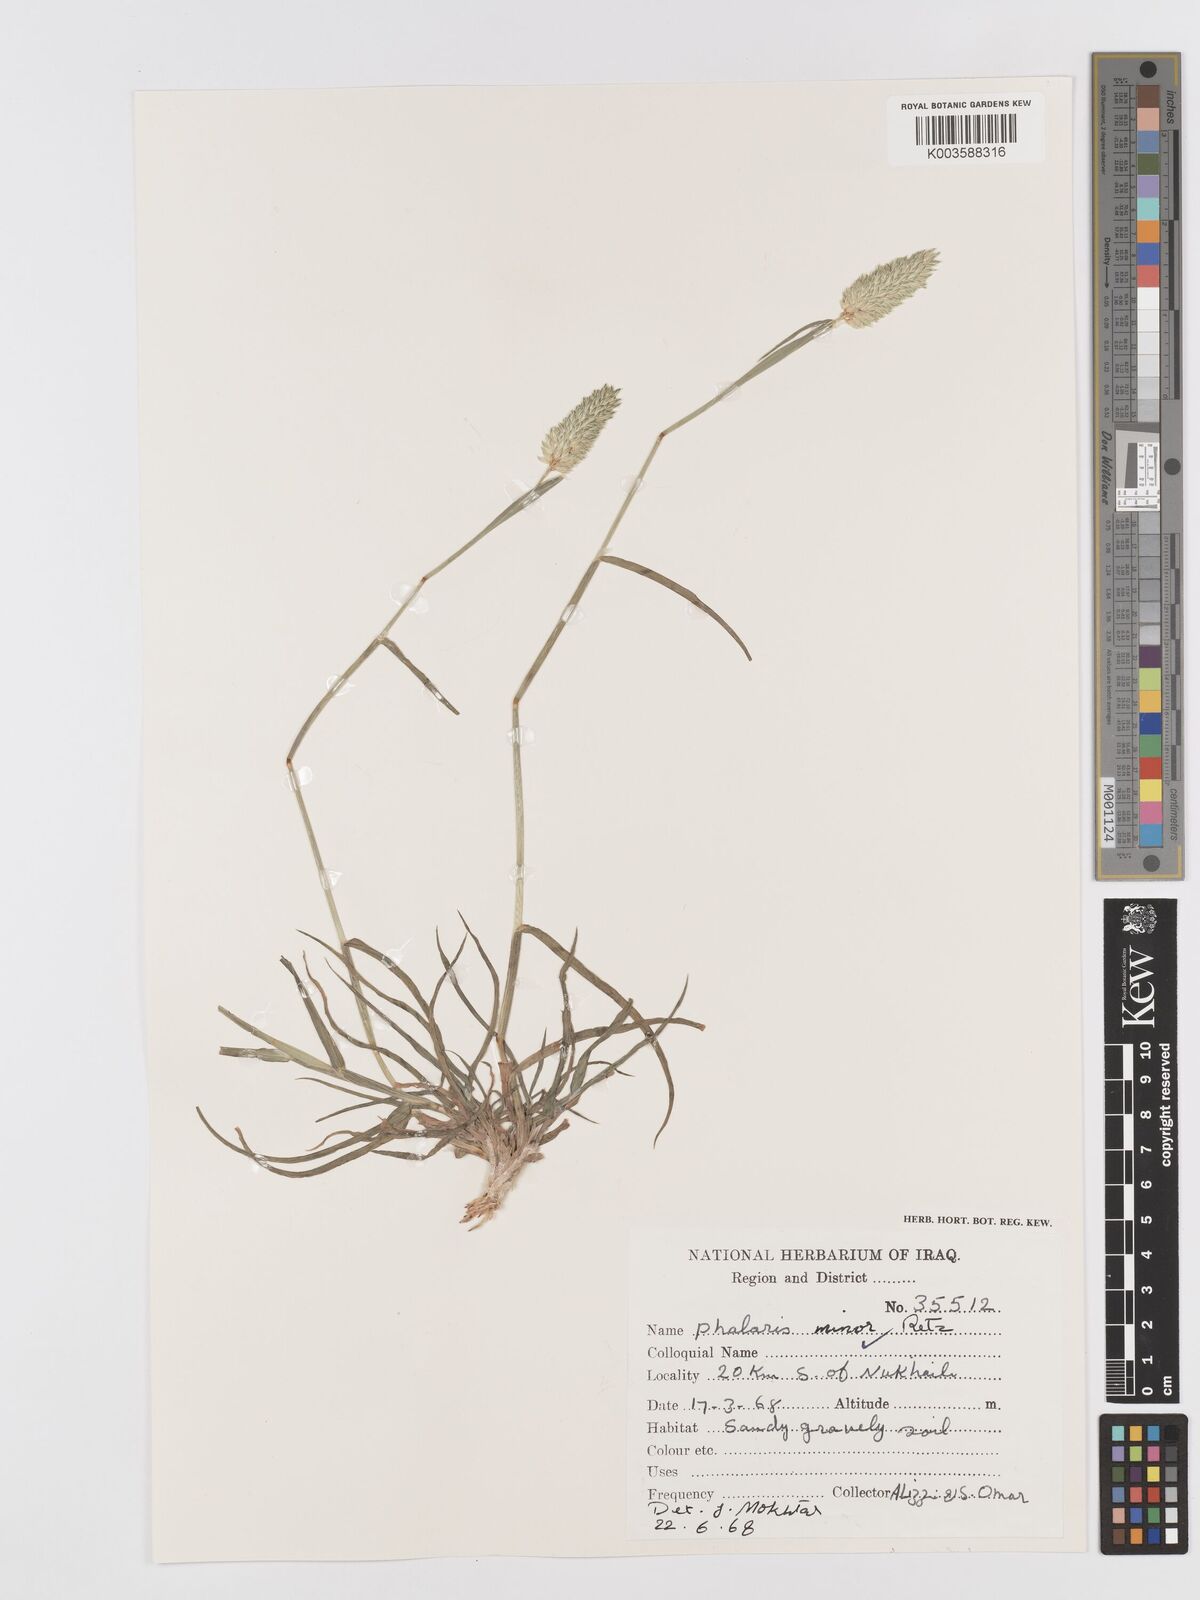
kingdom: Plantae
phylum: Tracheophyta
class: Liliopsida
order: Poales
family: Poaceae
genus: Phalaris
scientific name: Phalaris minor
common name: Littleseed canarygrass
